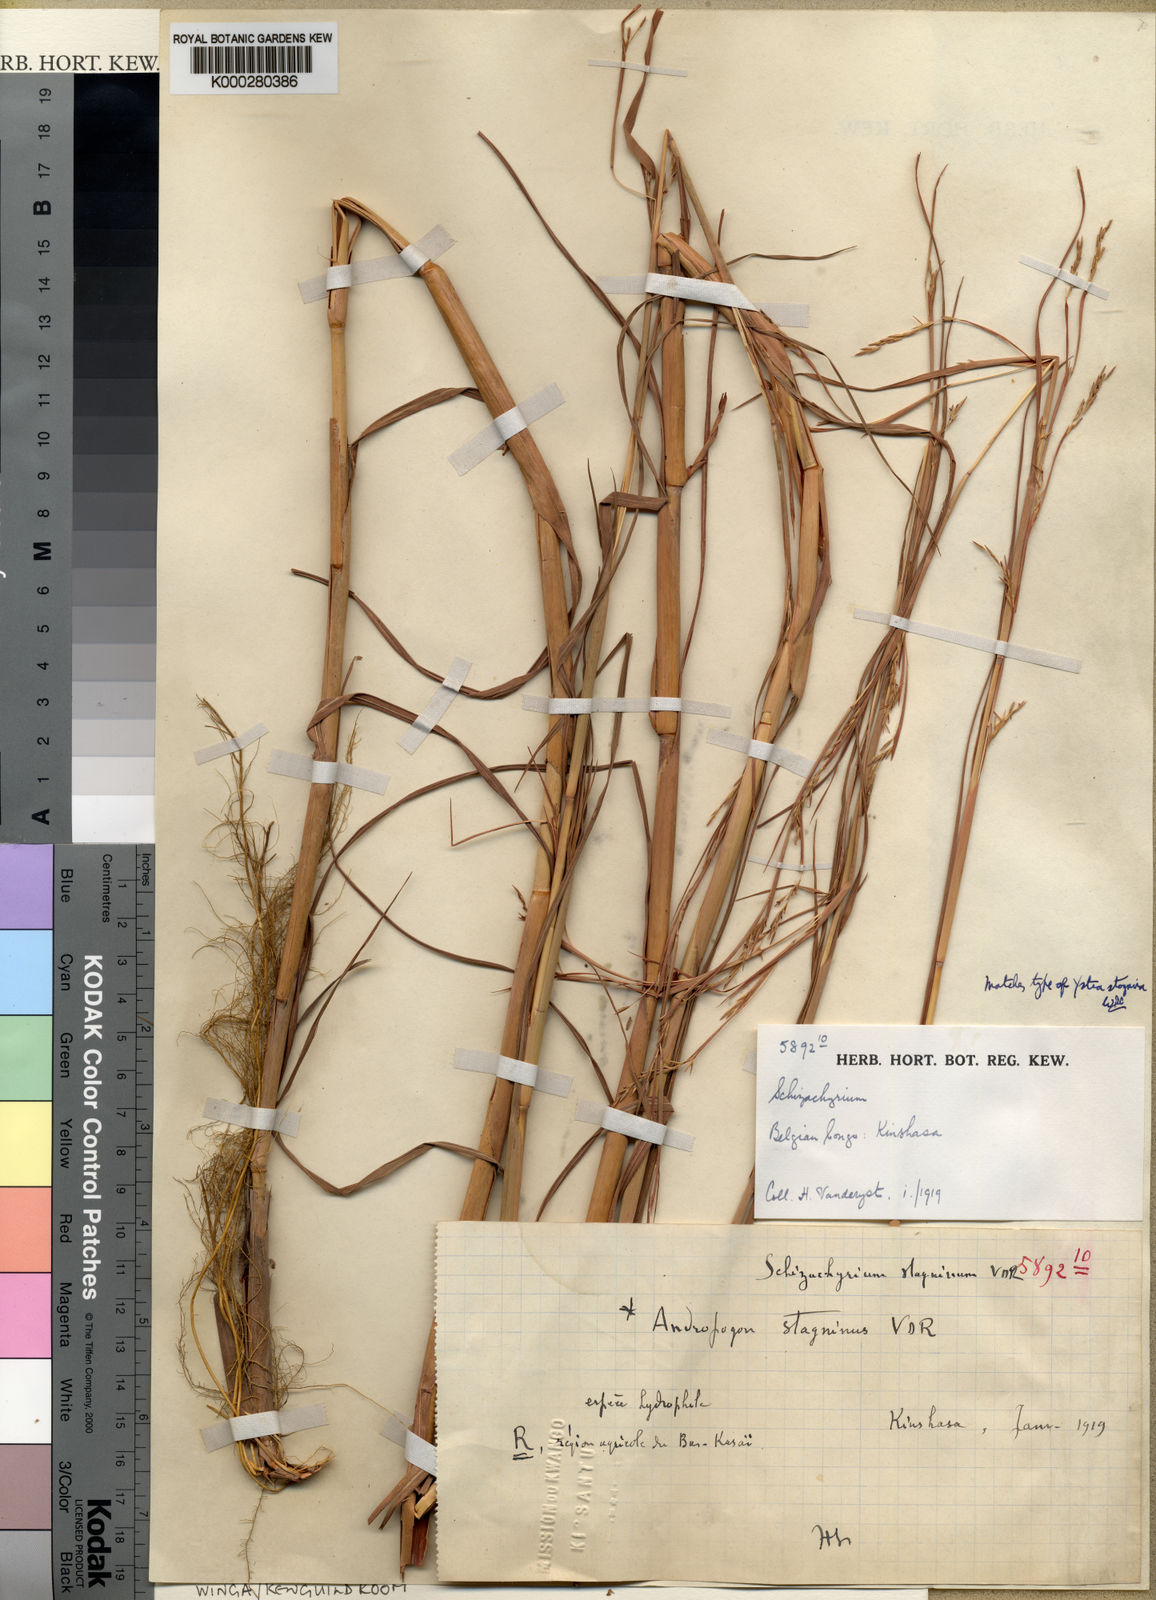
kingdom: Plantae
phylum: Tracheophyta
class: Liliopsida
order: Poales
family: Poaceae
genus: Schizachyrium
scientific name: Schizachyrium kwiluense
